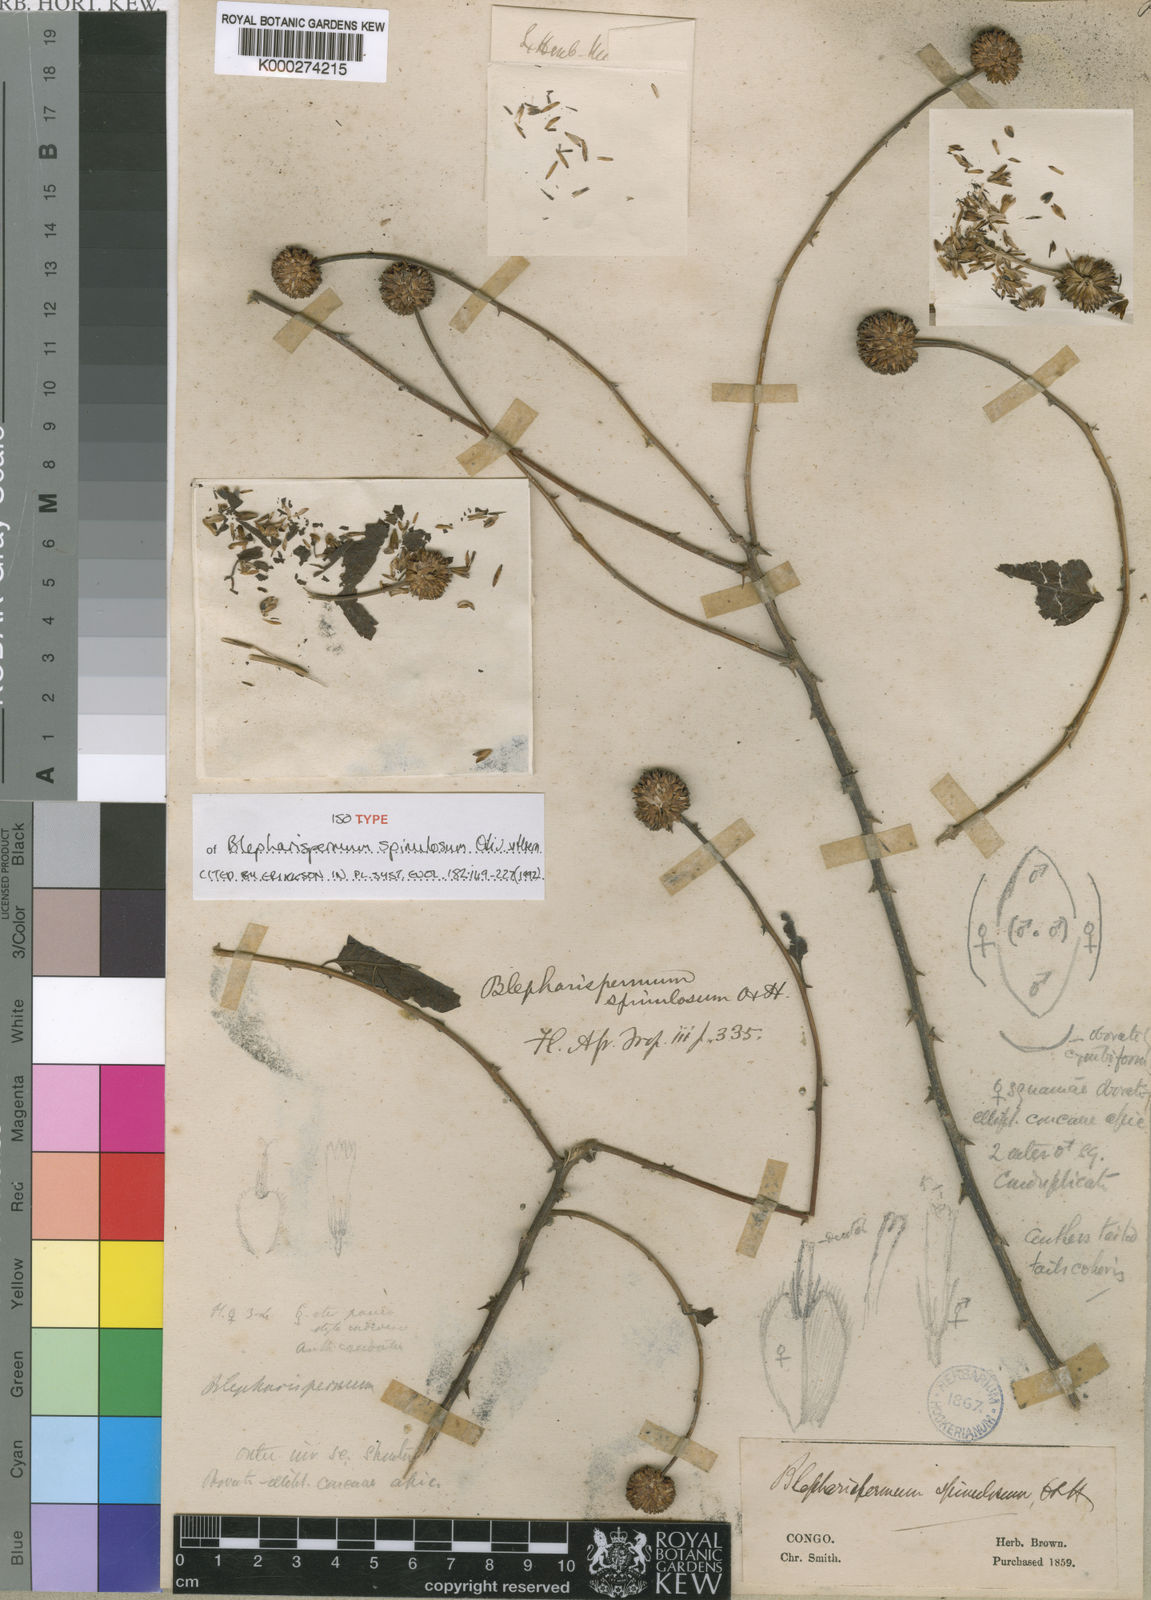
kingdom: Plantae
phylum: Tracheophyta
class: Magnoliopsida
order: Asterales
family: Asteraceae
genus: Blepharispermum
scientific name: Blepharispermum spinulosum
